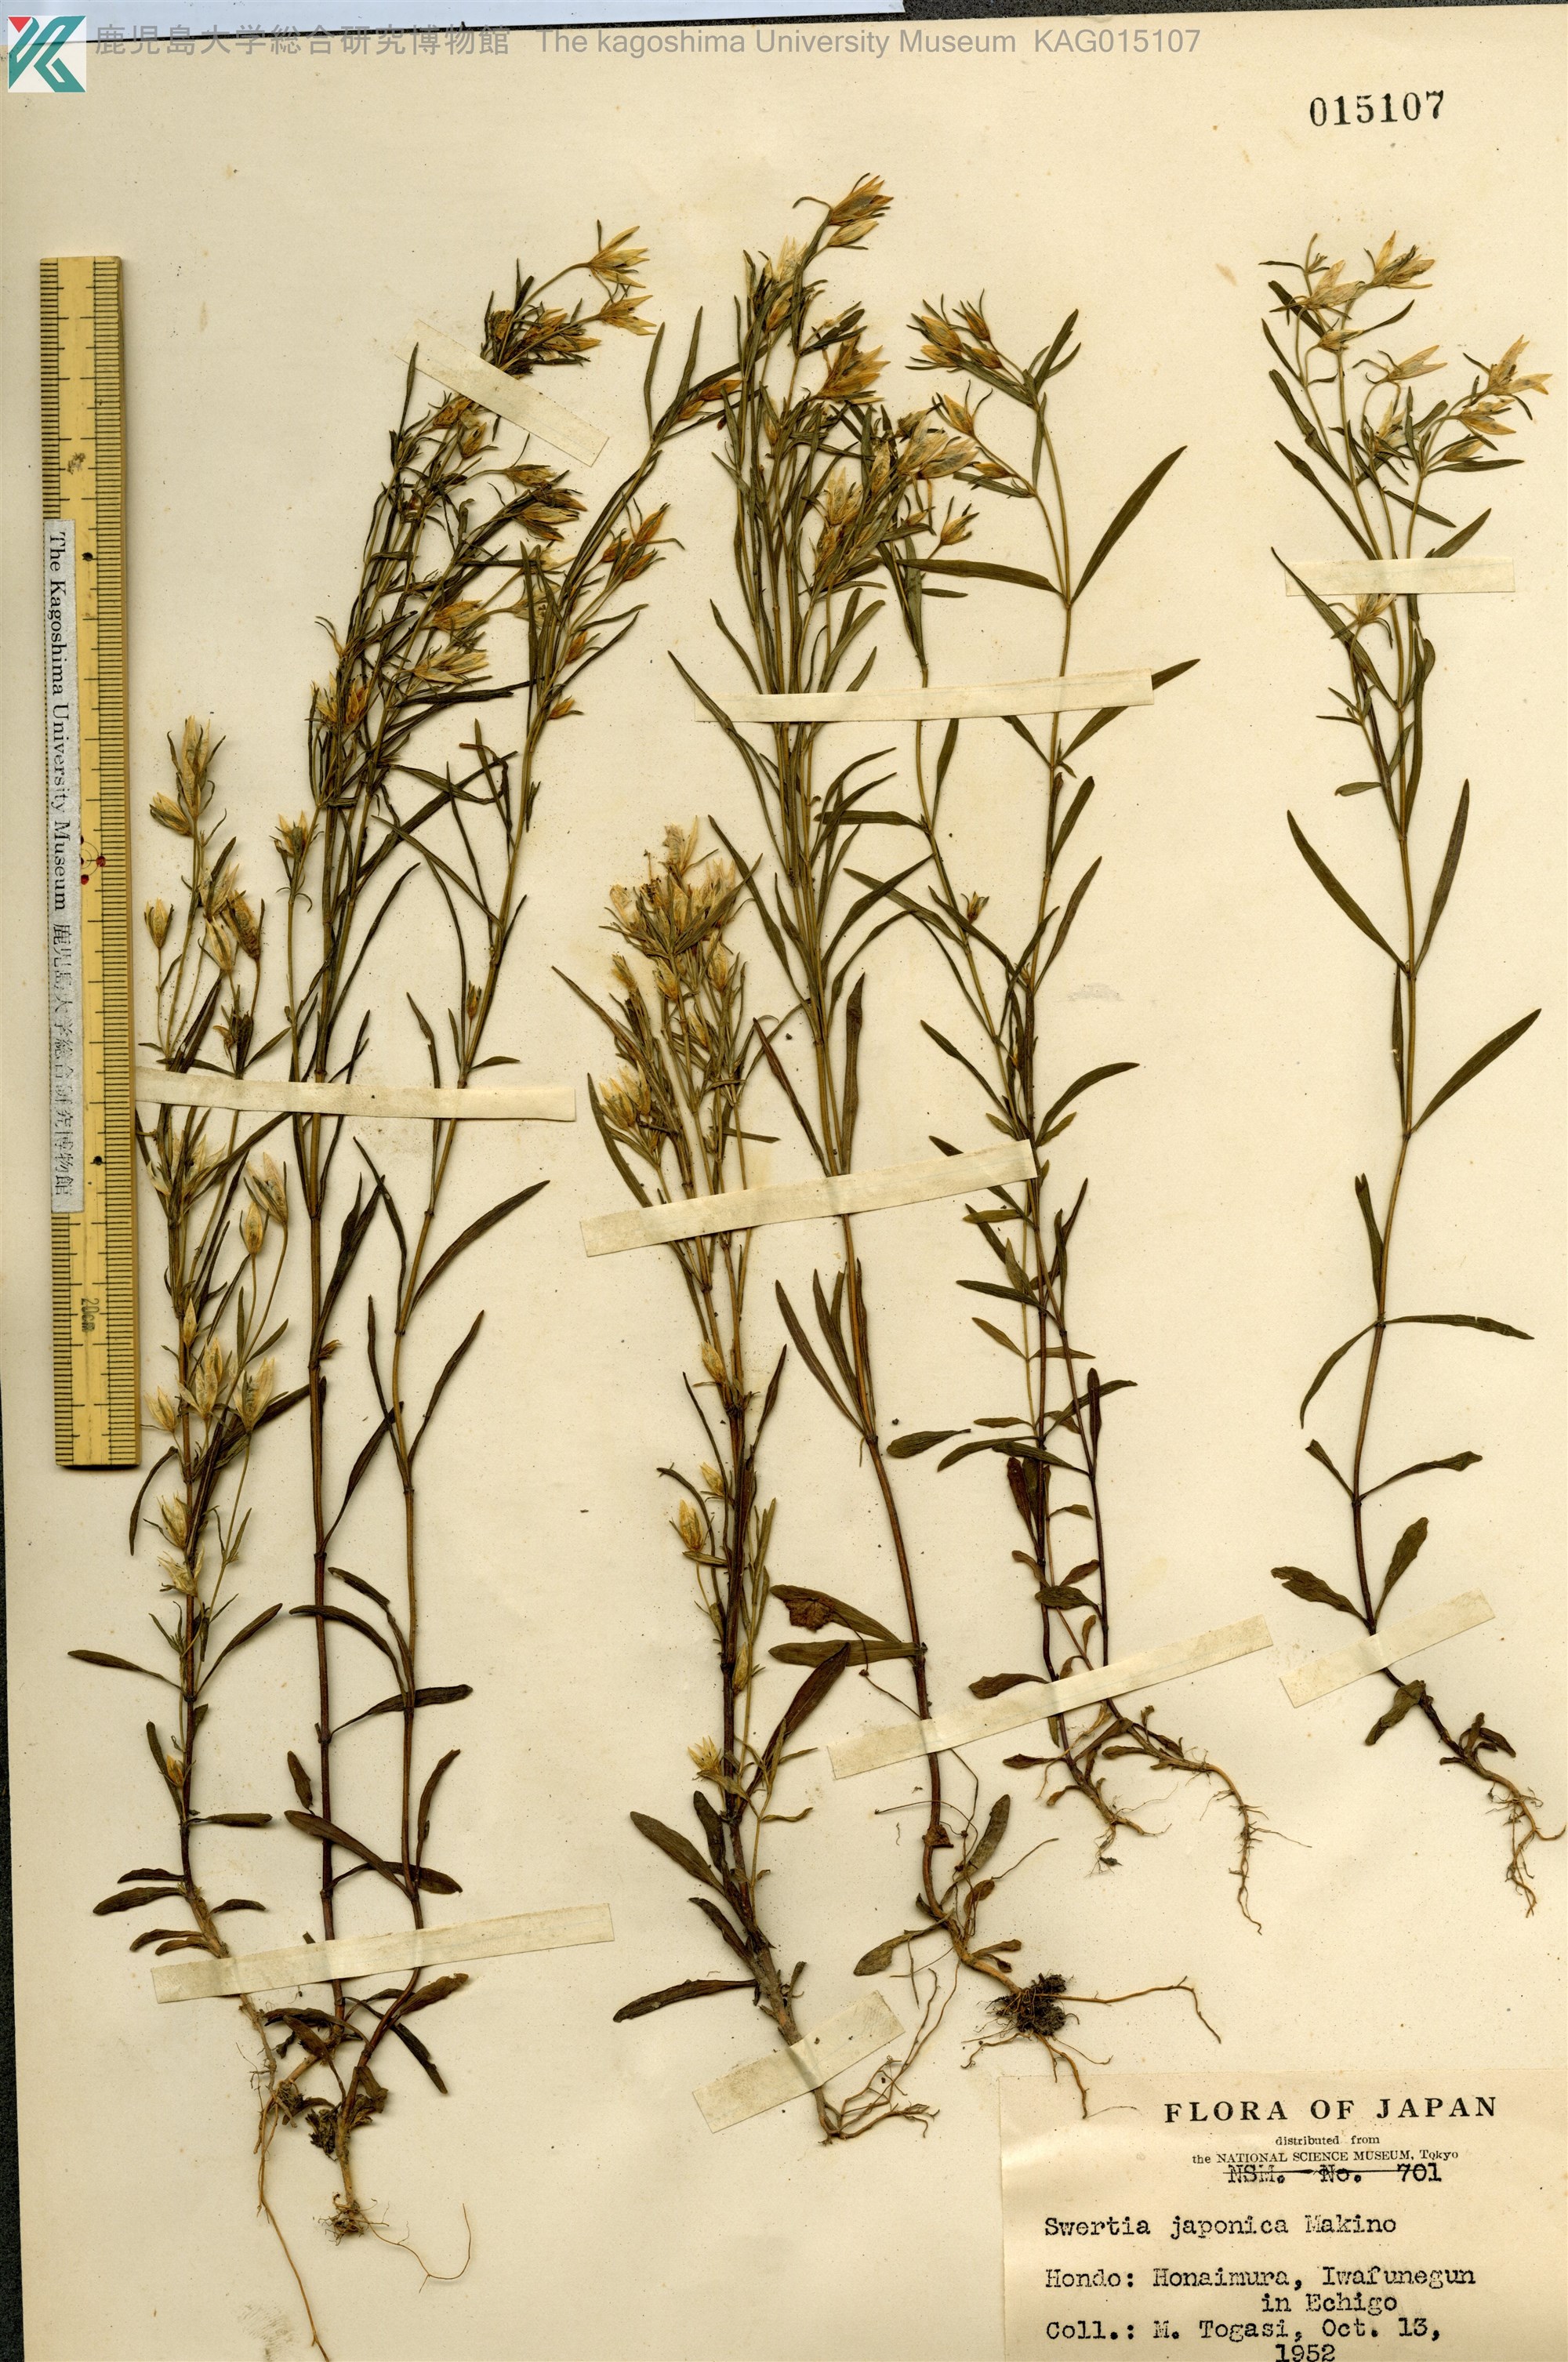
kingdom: Plantae
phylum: Tracheophyta
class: Magnoliopsida
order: Gentianales
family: Gentianaceae
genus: Swertia
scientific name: Swertia japonica
